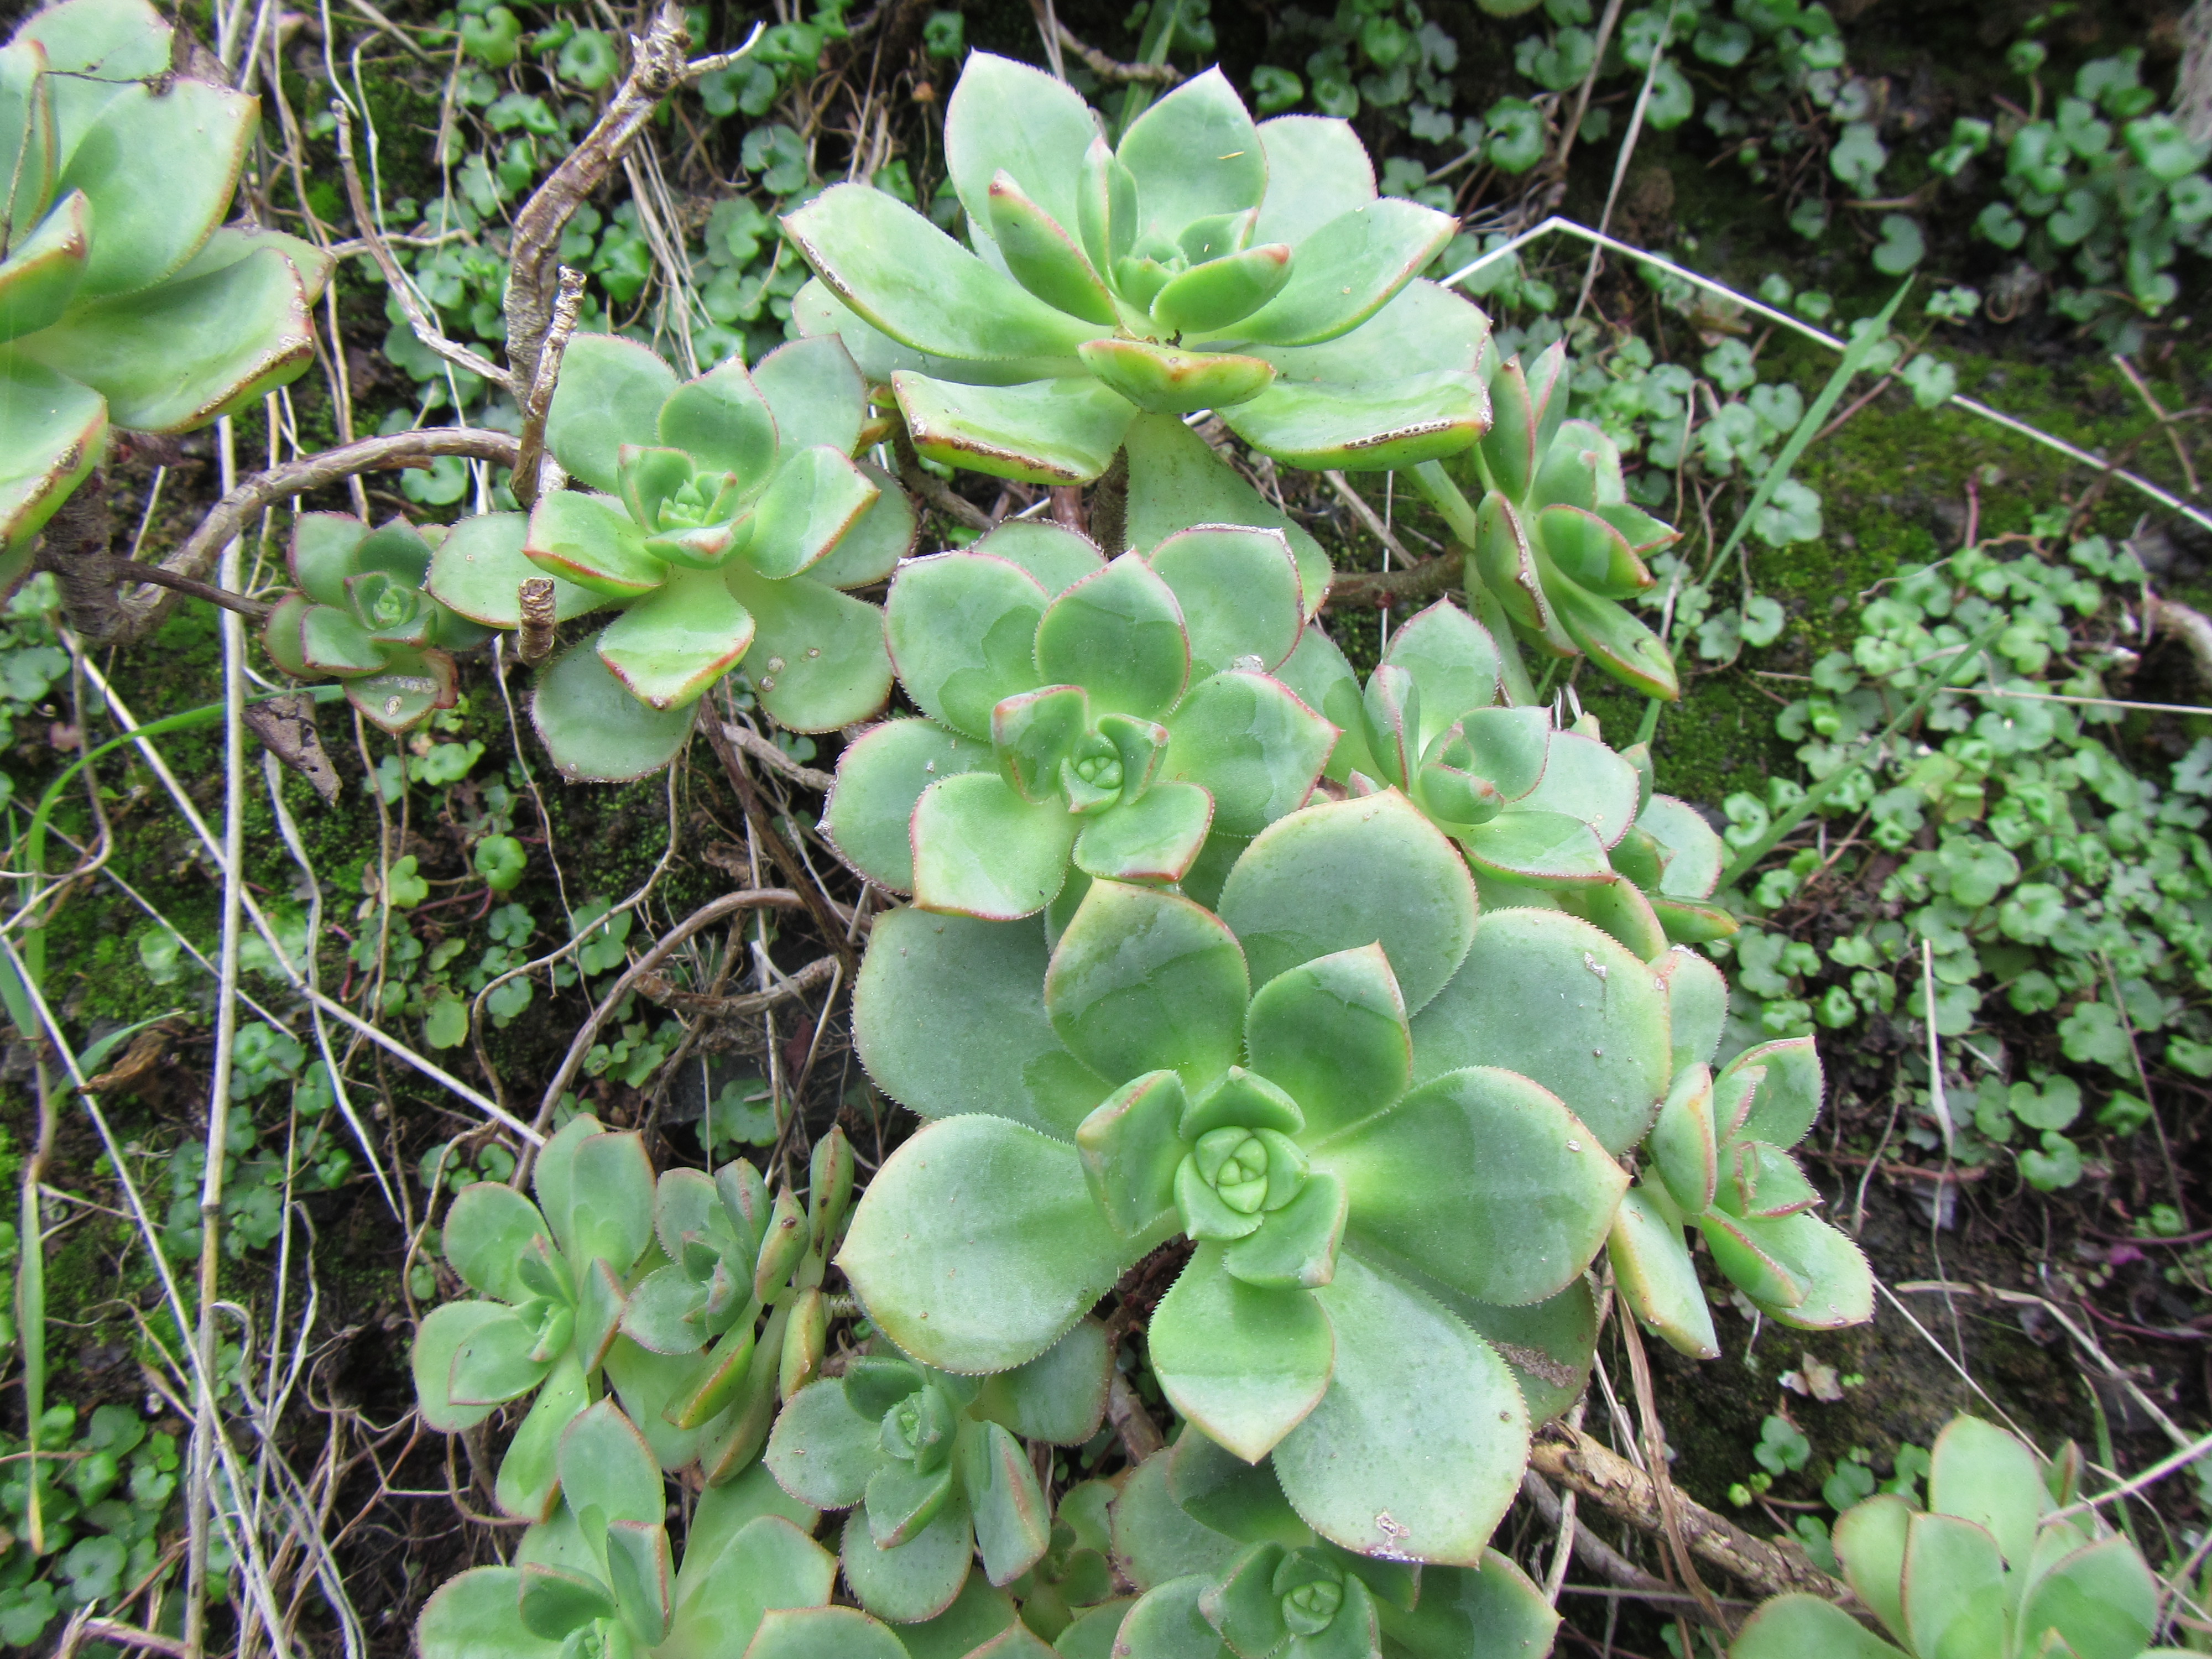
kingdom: Plantae
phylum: Tracheophyta
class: Magnoliopsida
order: Saxifragales
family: Crassulaceae
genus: Aeonium
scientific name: Aeonium haworthii
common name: Haworth's aeonium
